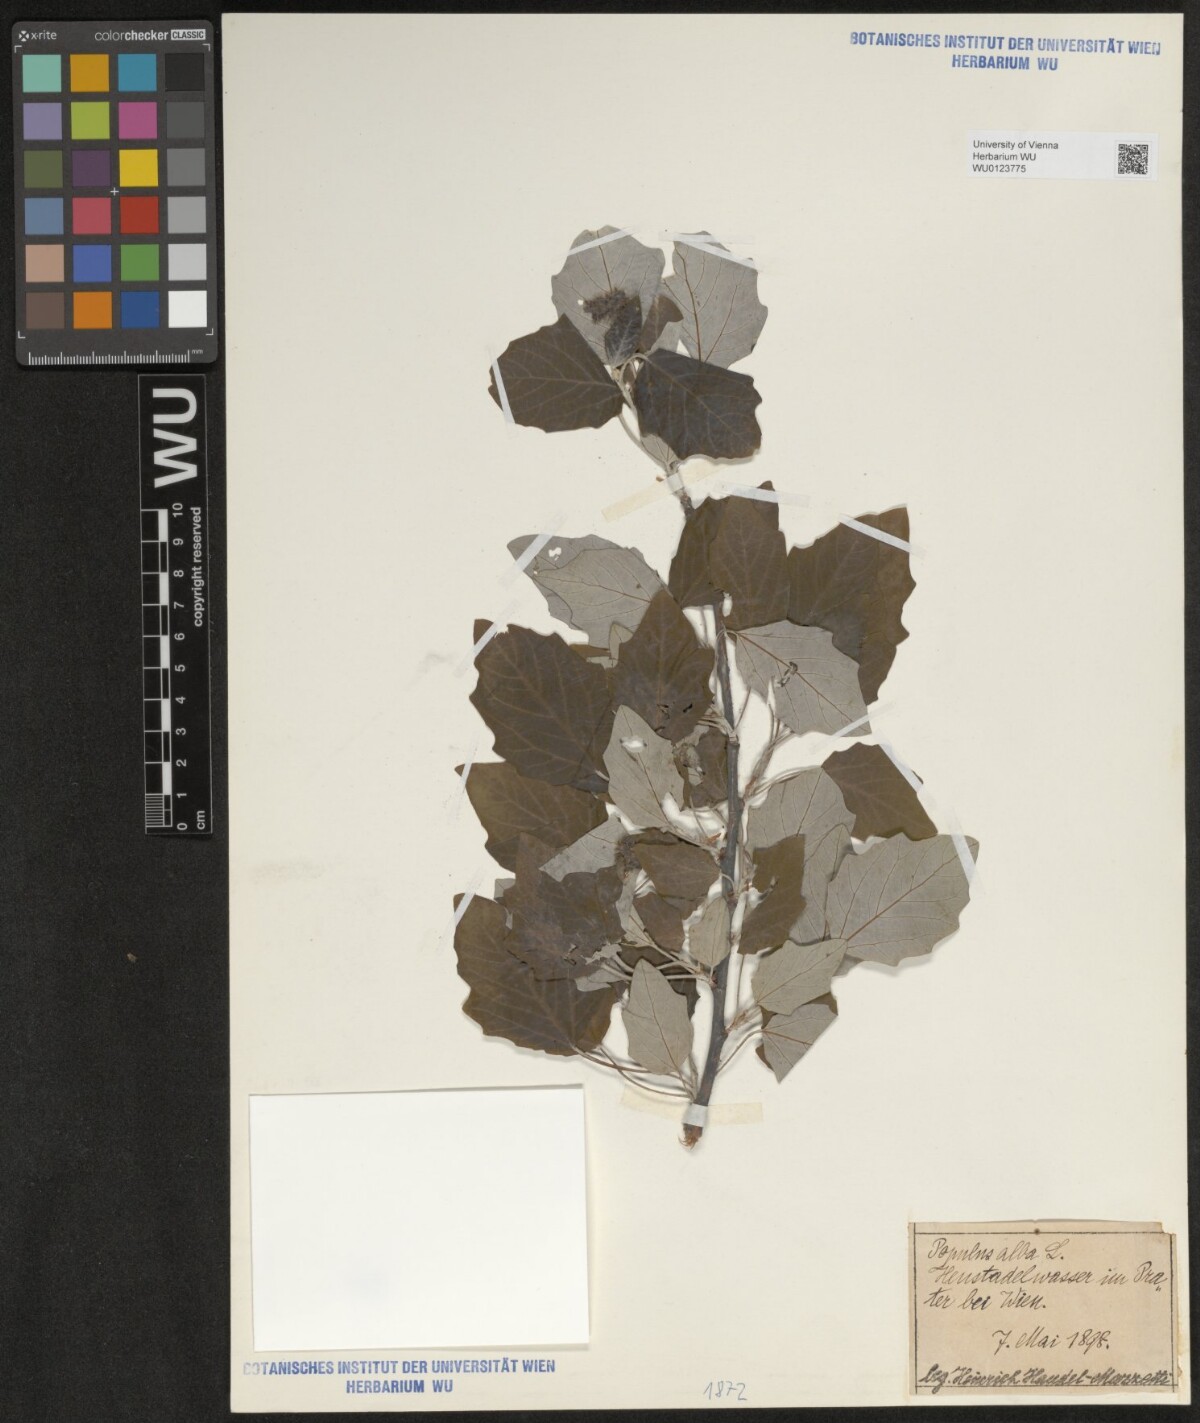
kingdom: Plantae
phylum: Tracheophyta
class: Magnoliopsida
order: Malpighiales
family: Salicaceae
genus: Populus
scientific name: Populus alba
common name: White poplar
